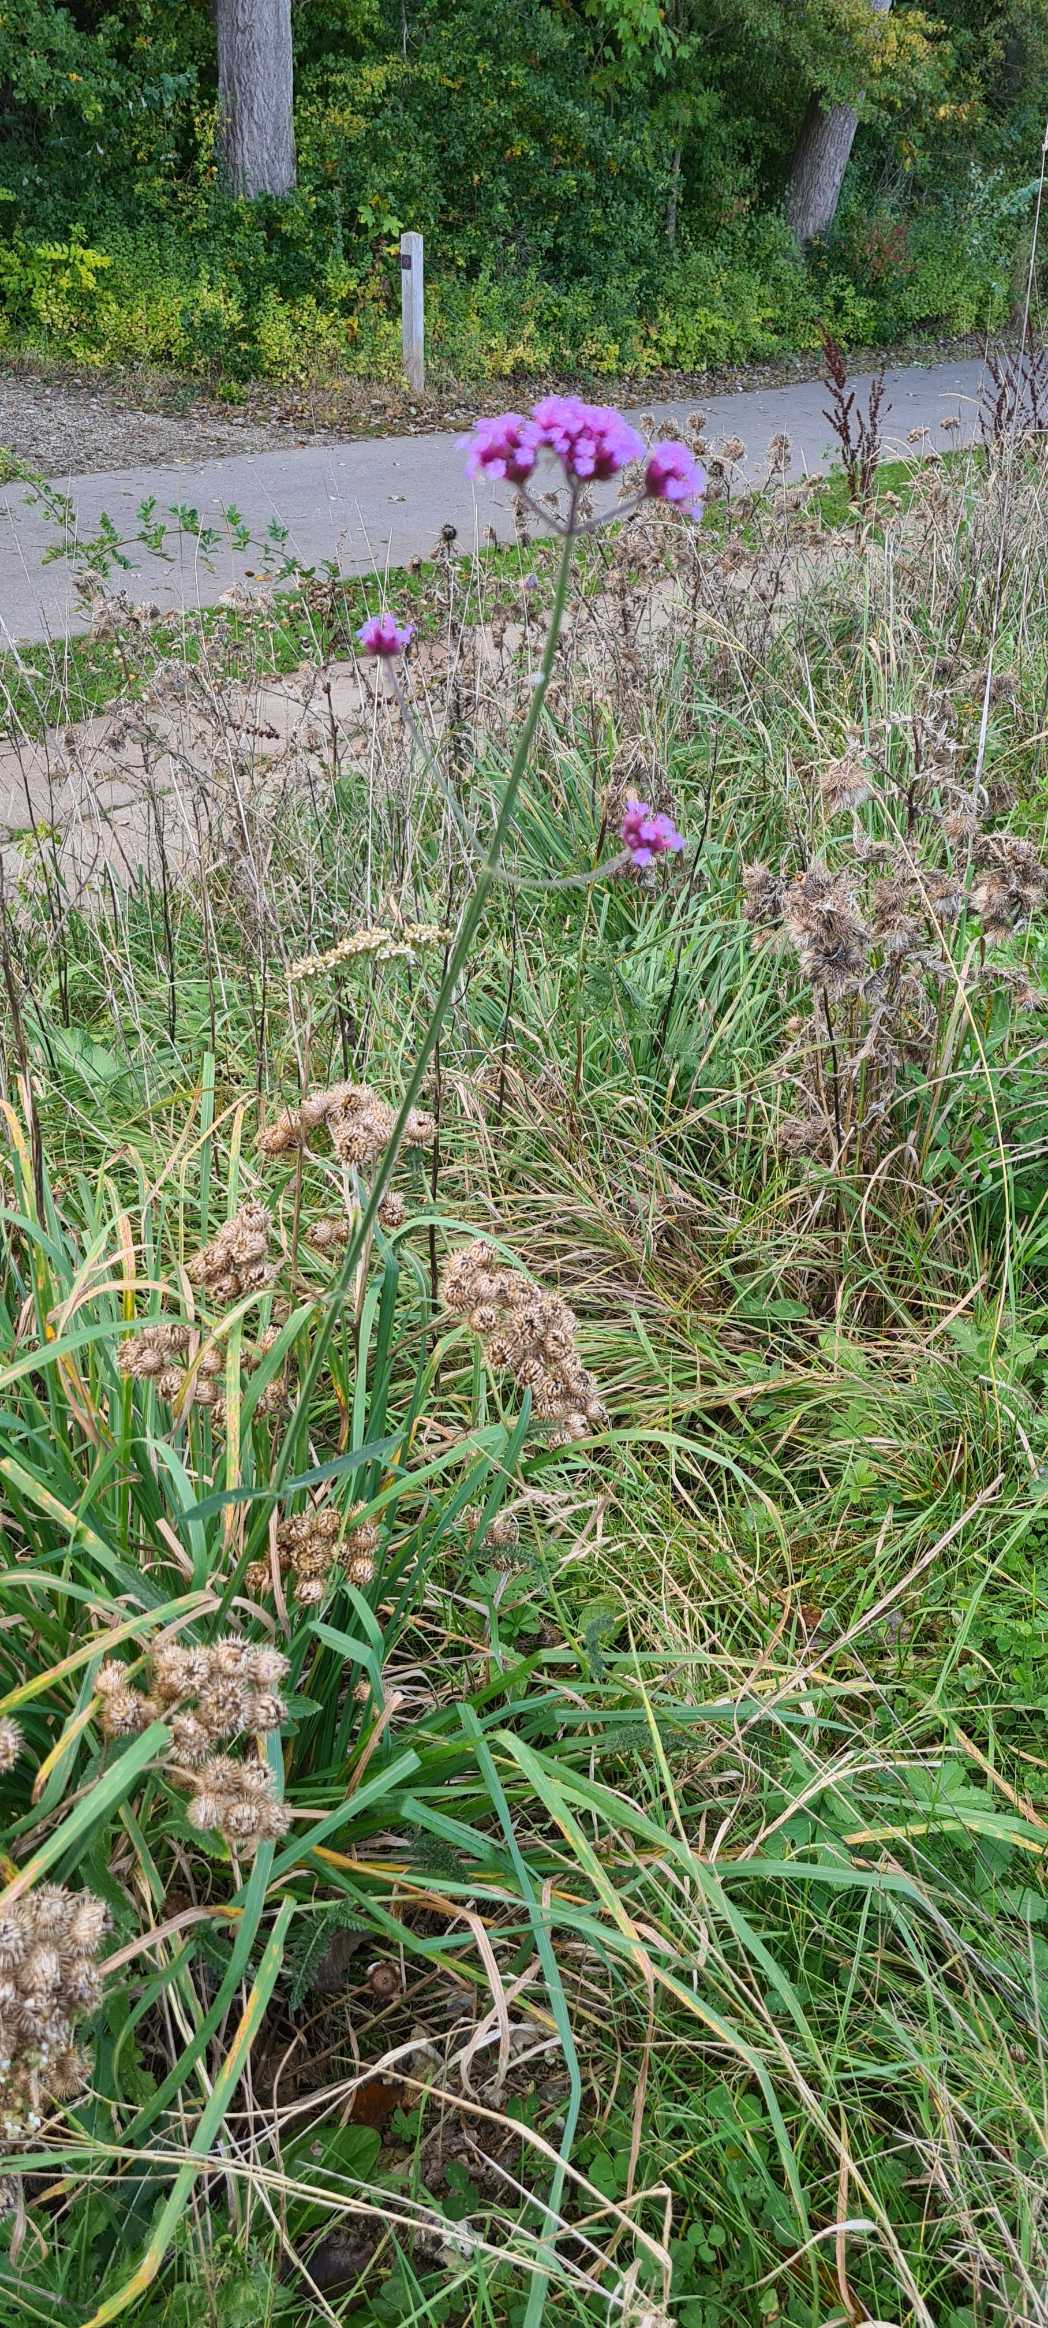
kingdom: Plantae
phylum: Tracheophyta
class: Magnoliopsida
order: Lamiales
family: Verbenaceae
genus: Verbena
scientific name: Verbena bonariensis
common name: Kæmpe-jernurt
